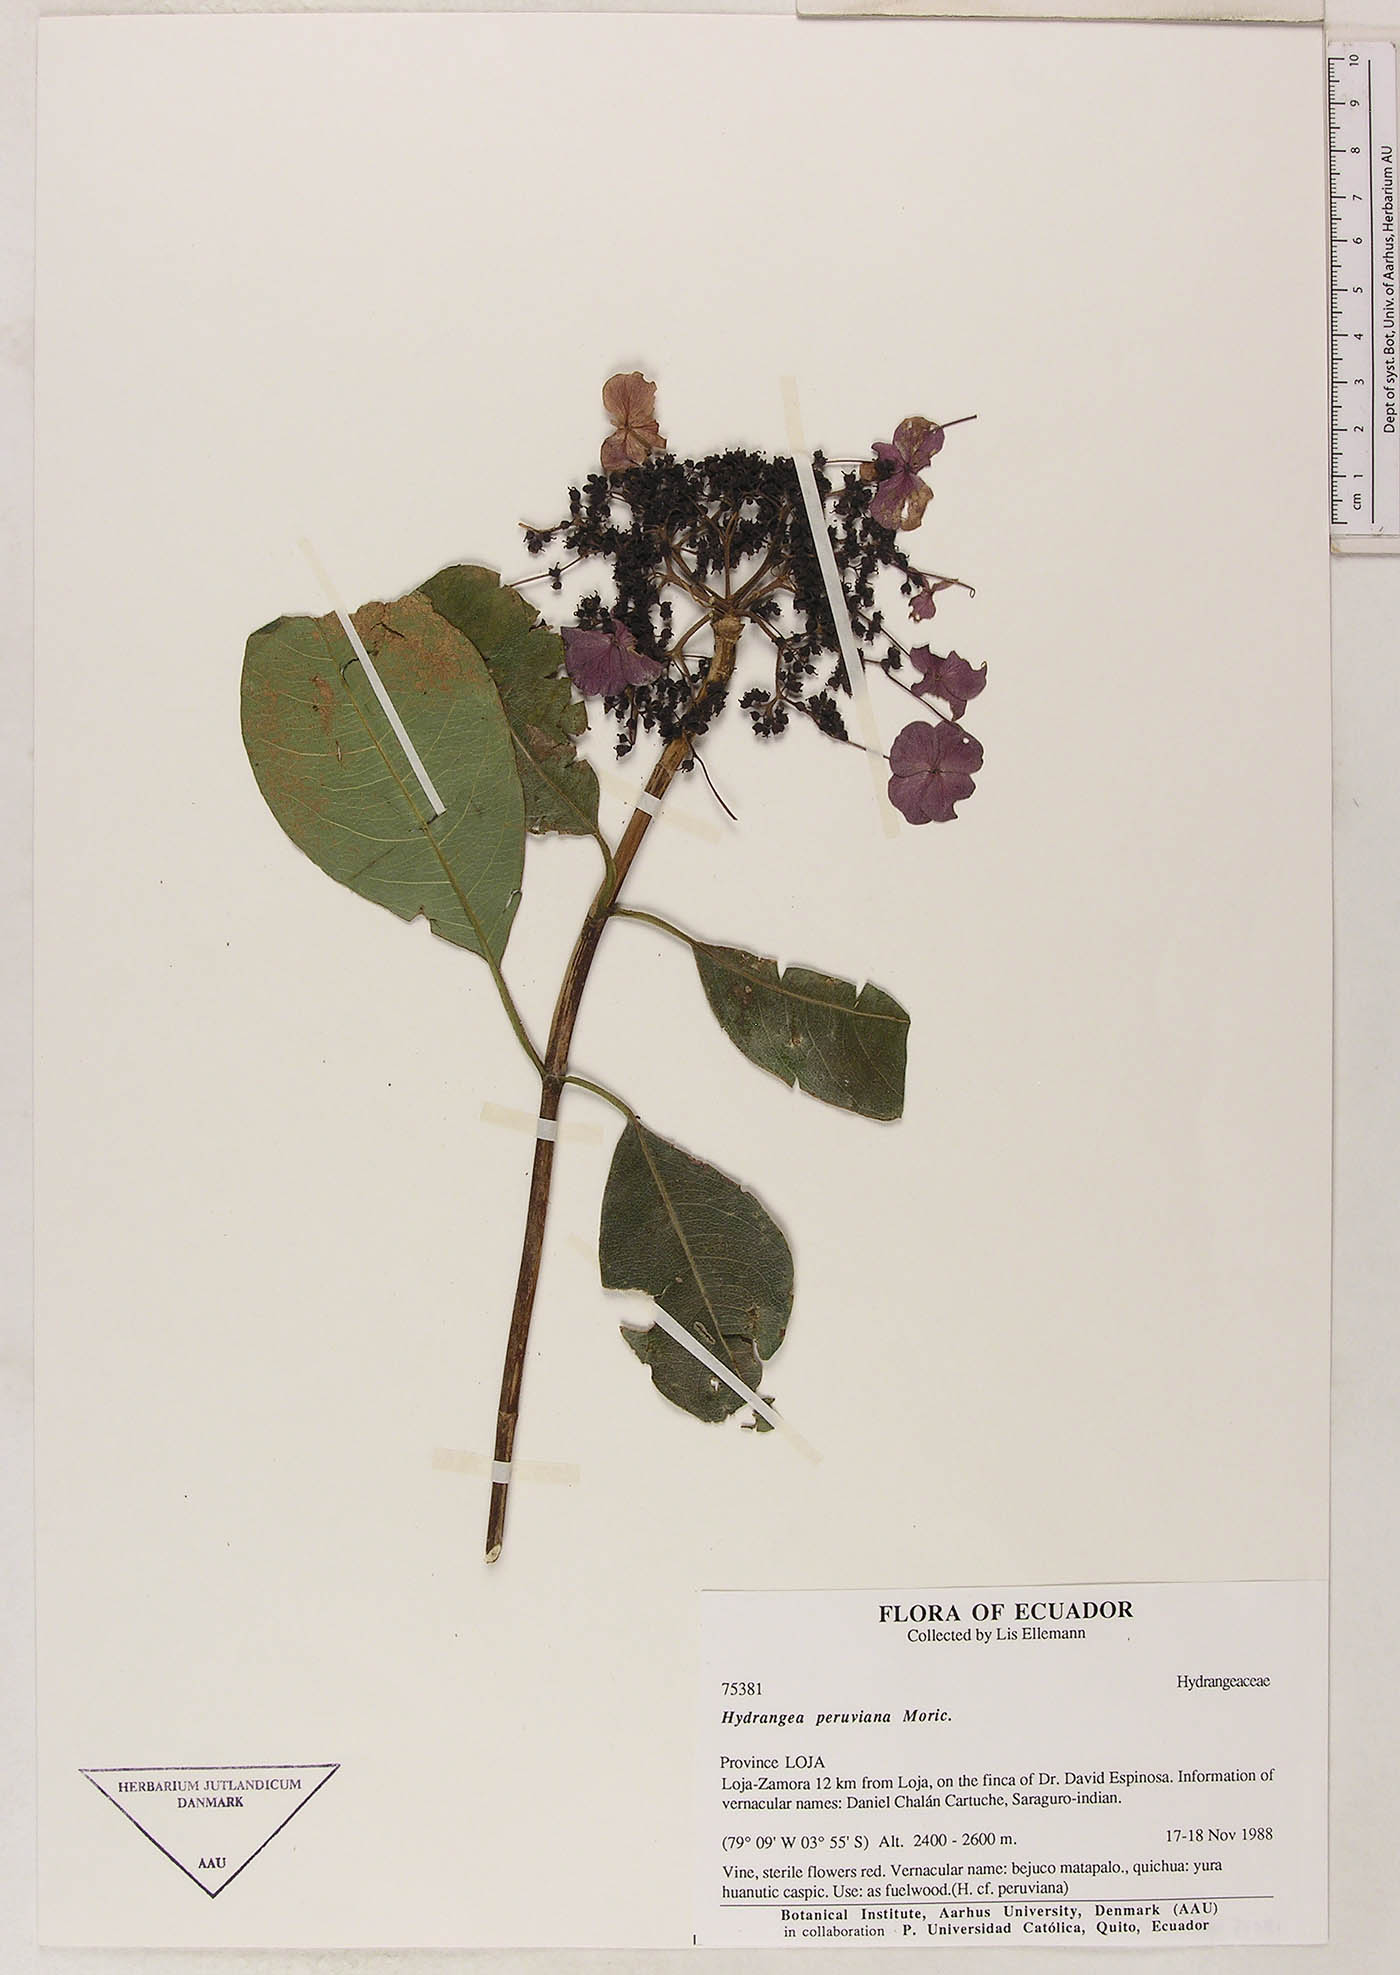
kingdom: Plantae
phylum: Tracheophyta
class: Magnoliopsida
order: Cornales
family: Hydrangeaceae
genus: Hydrangea
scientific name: Hydrangea peruviana
